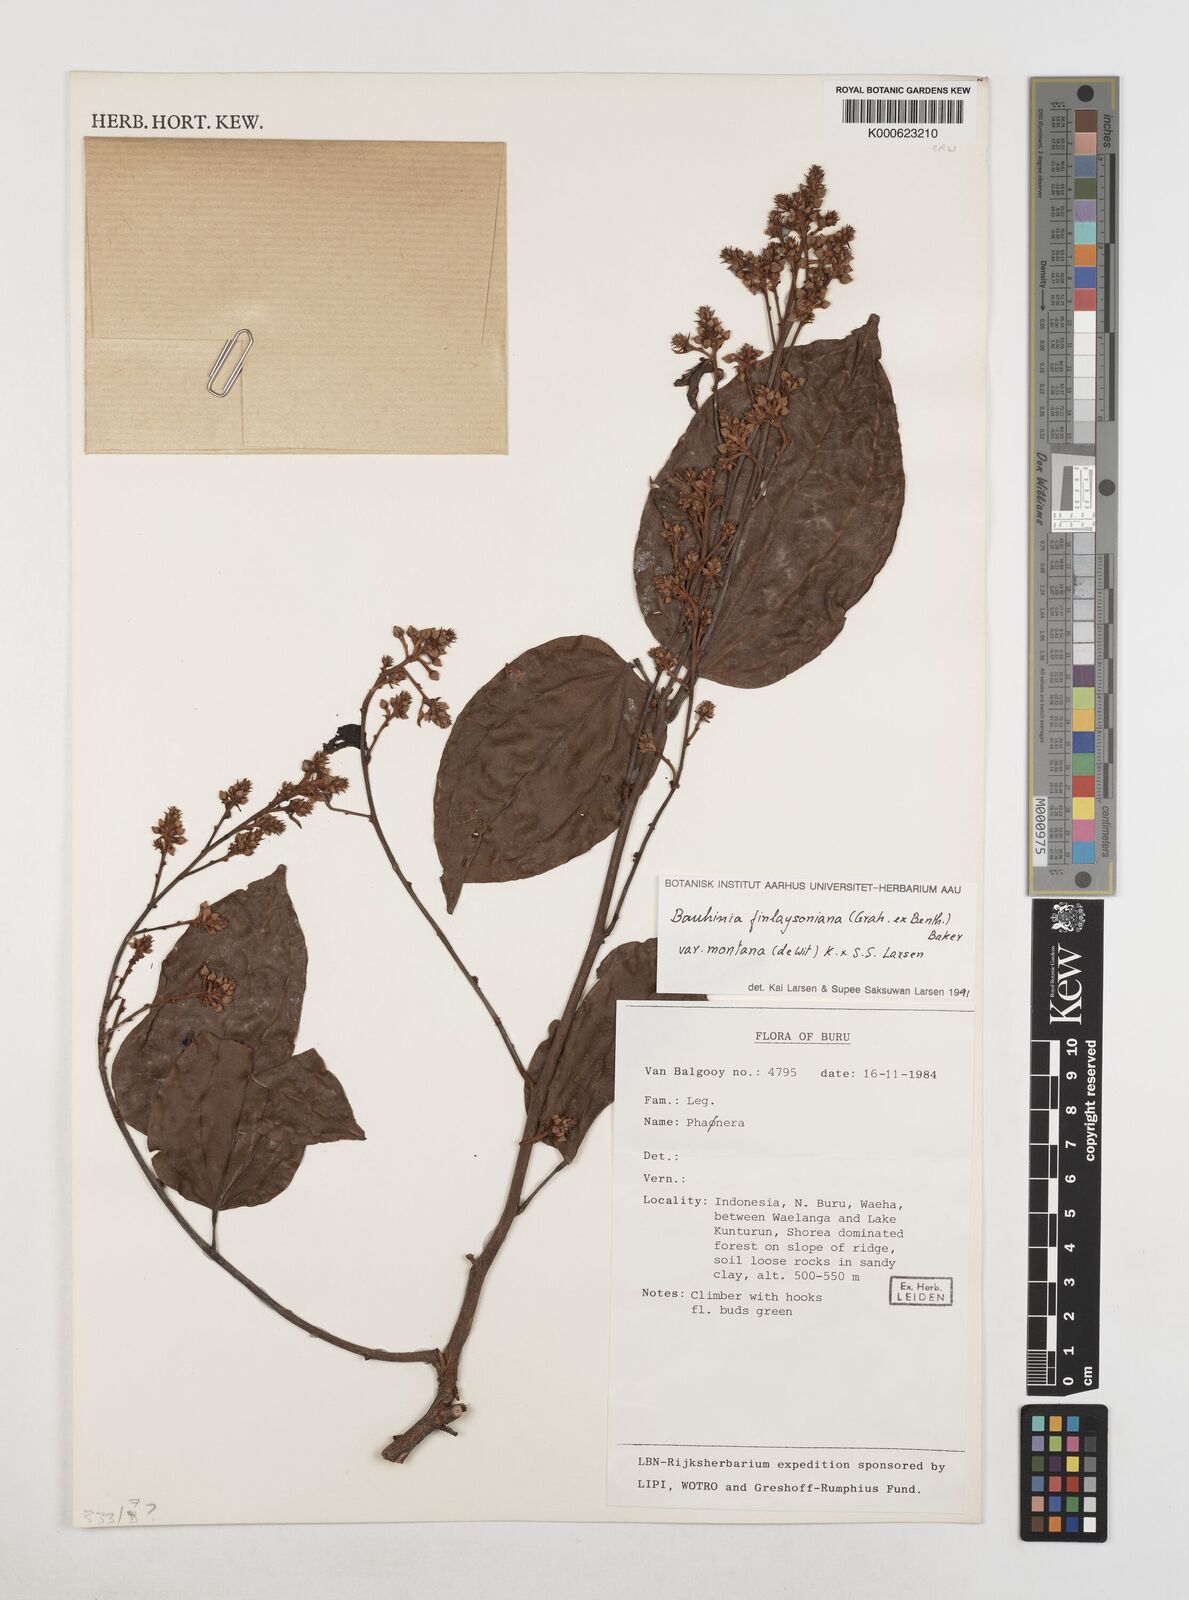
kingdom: Plantae
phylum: Tracheophyta
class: Magnoliopsida
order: Fabales
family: Fabaceae
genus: Phanera
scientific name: Phanera finlaysoniana
